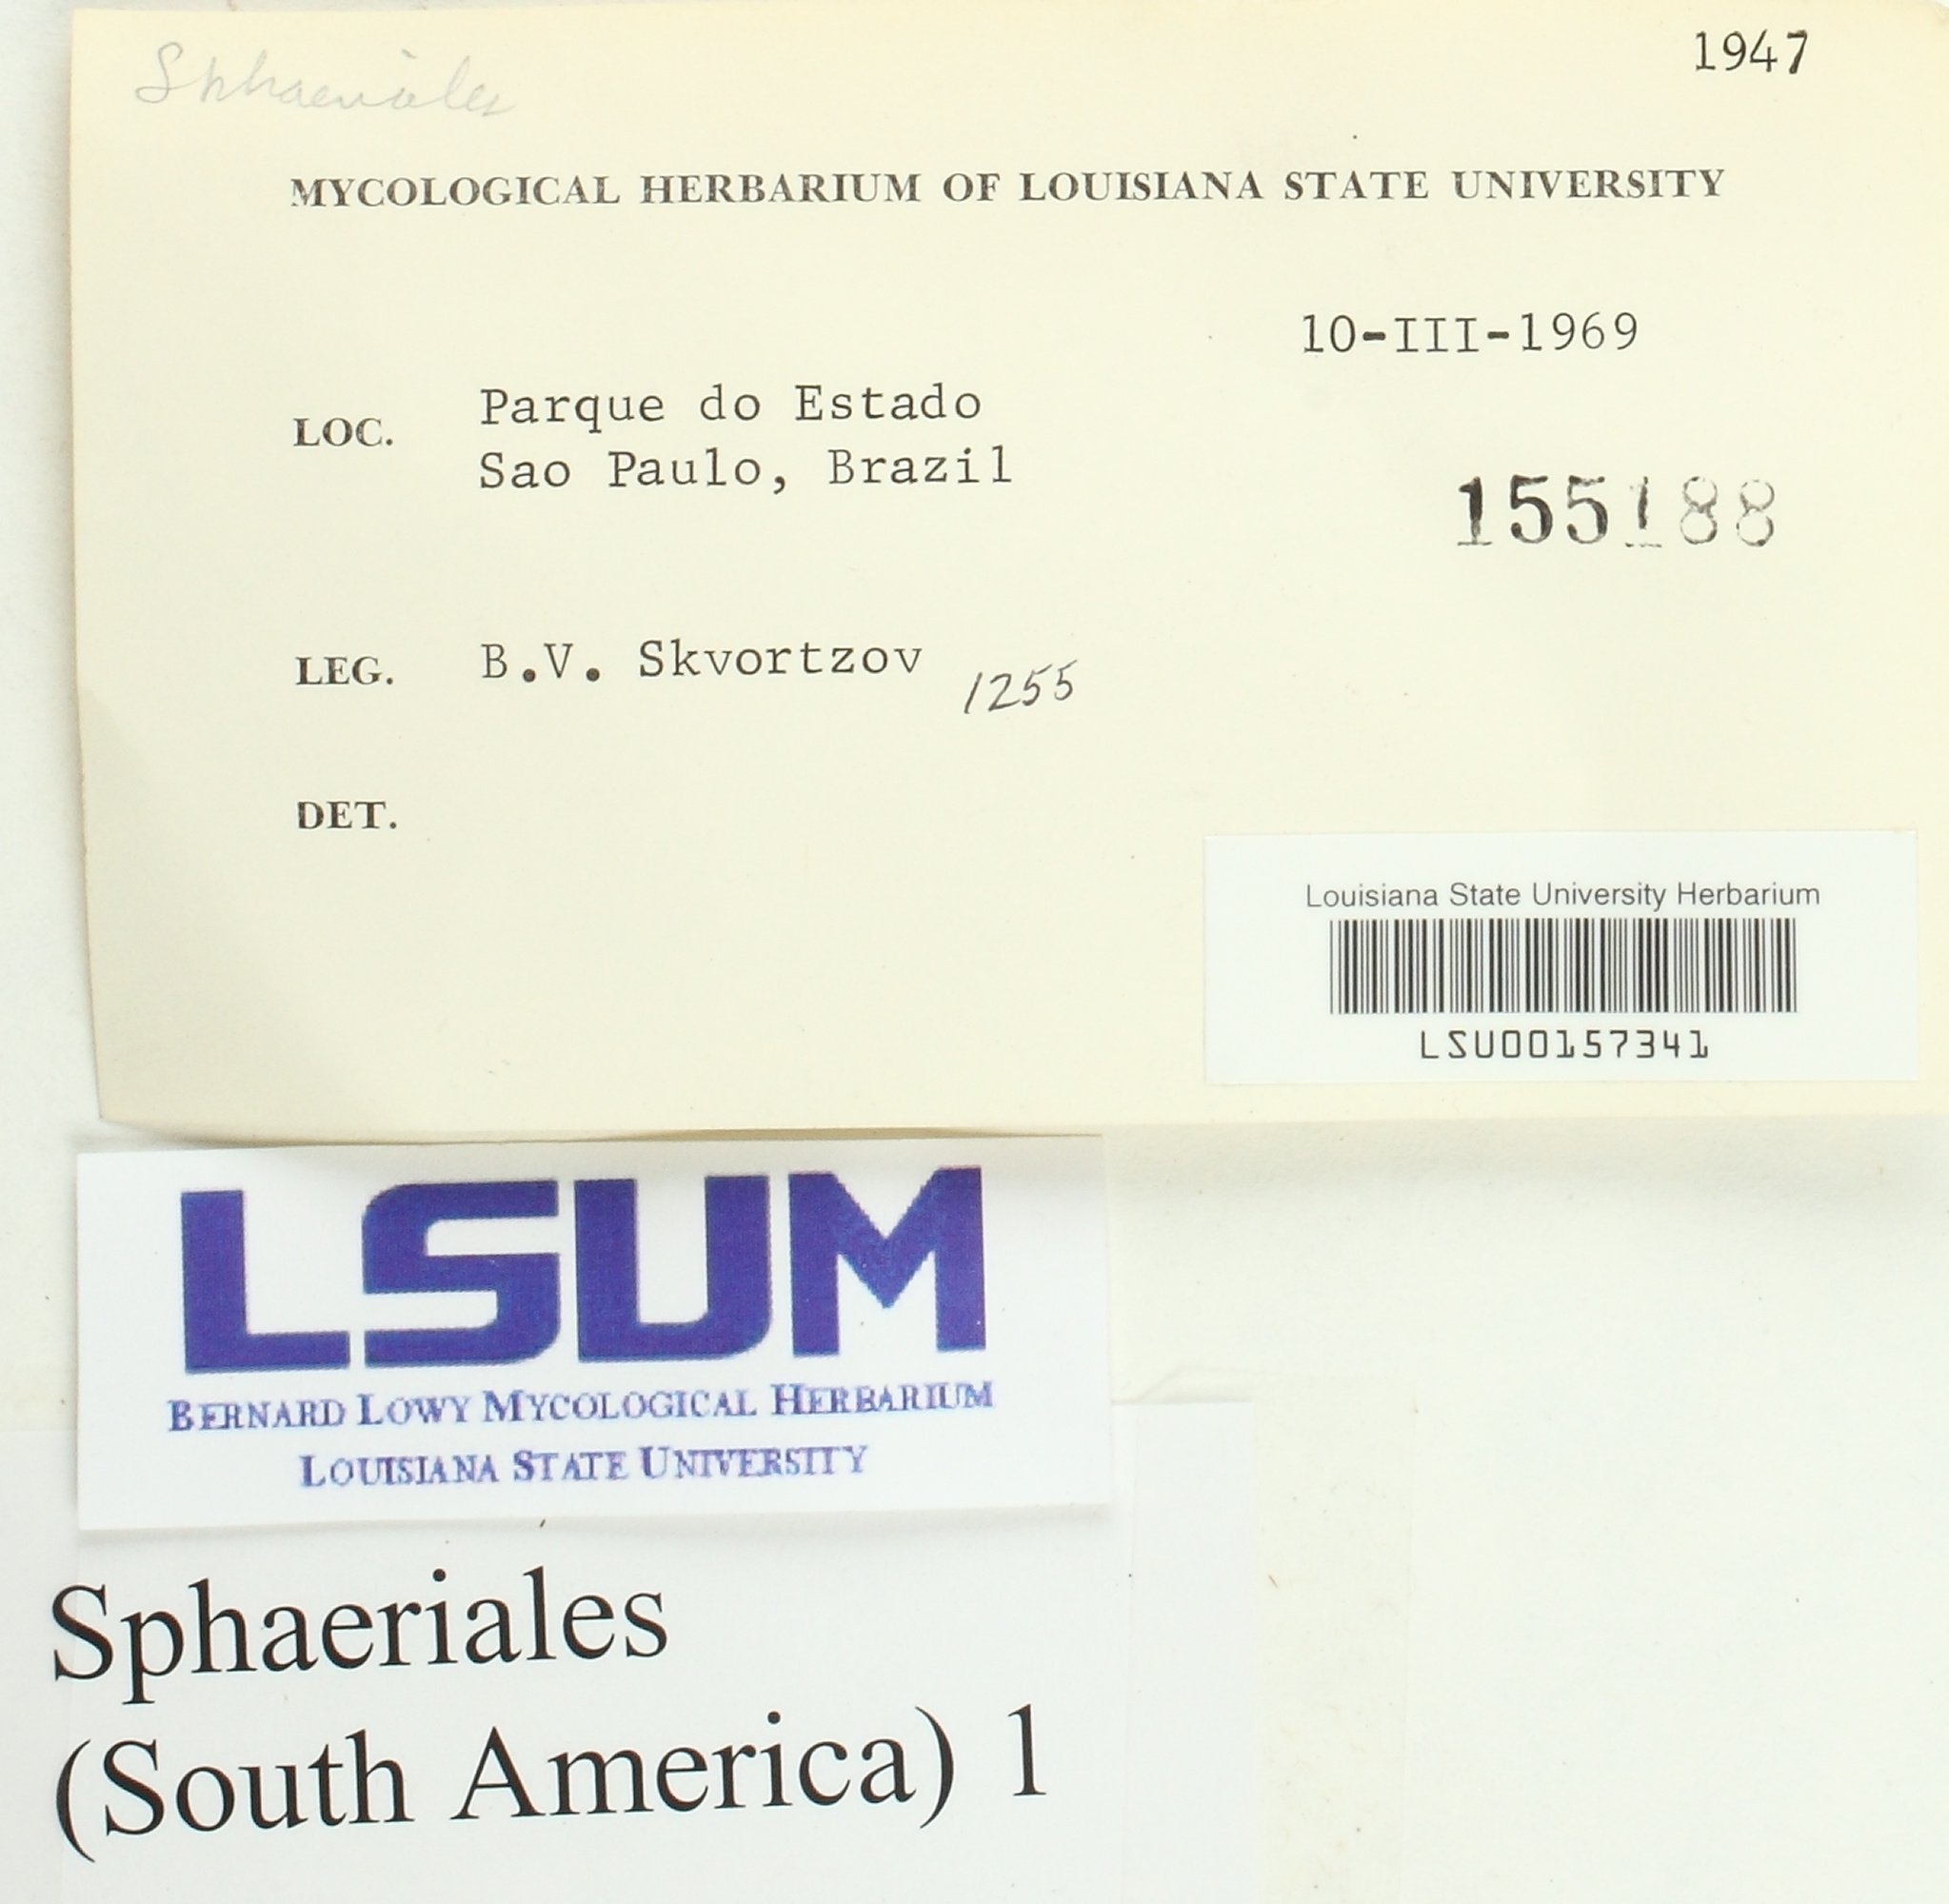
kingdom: Fungi
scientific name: Fungi
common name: Fungi
